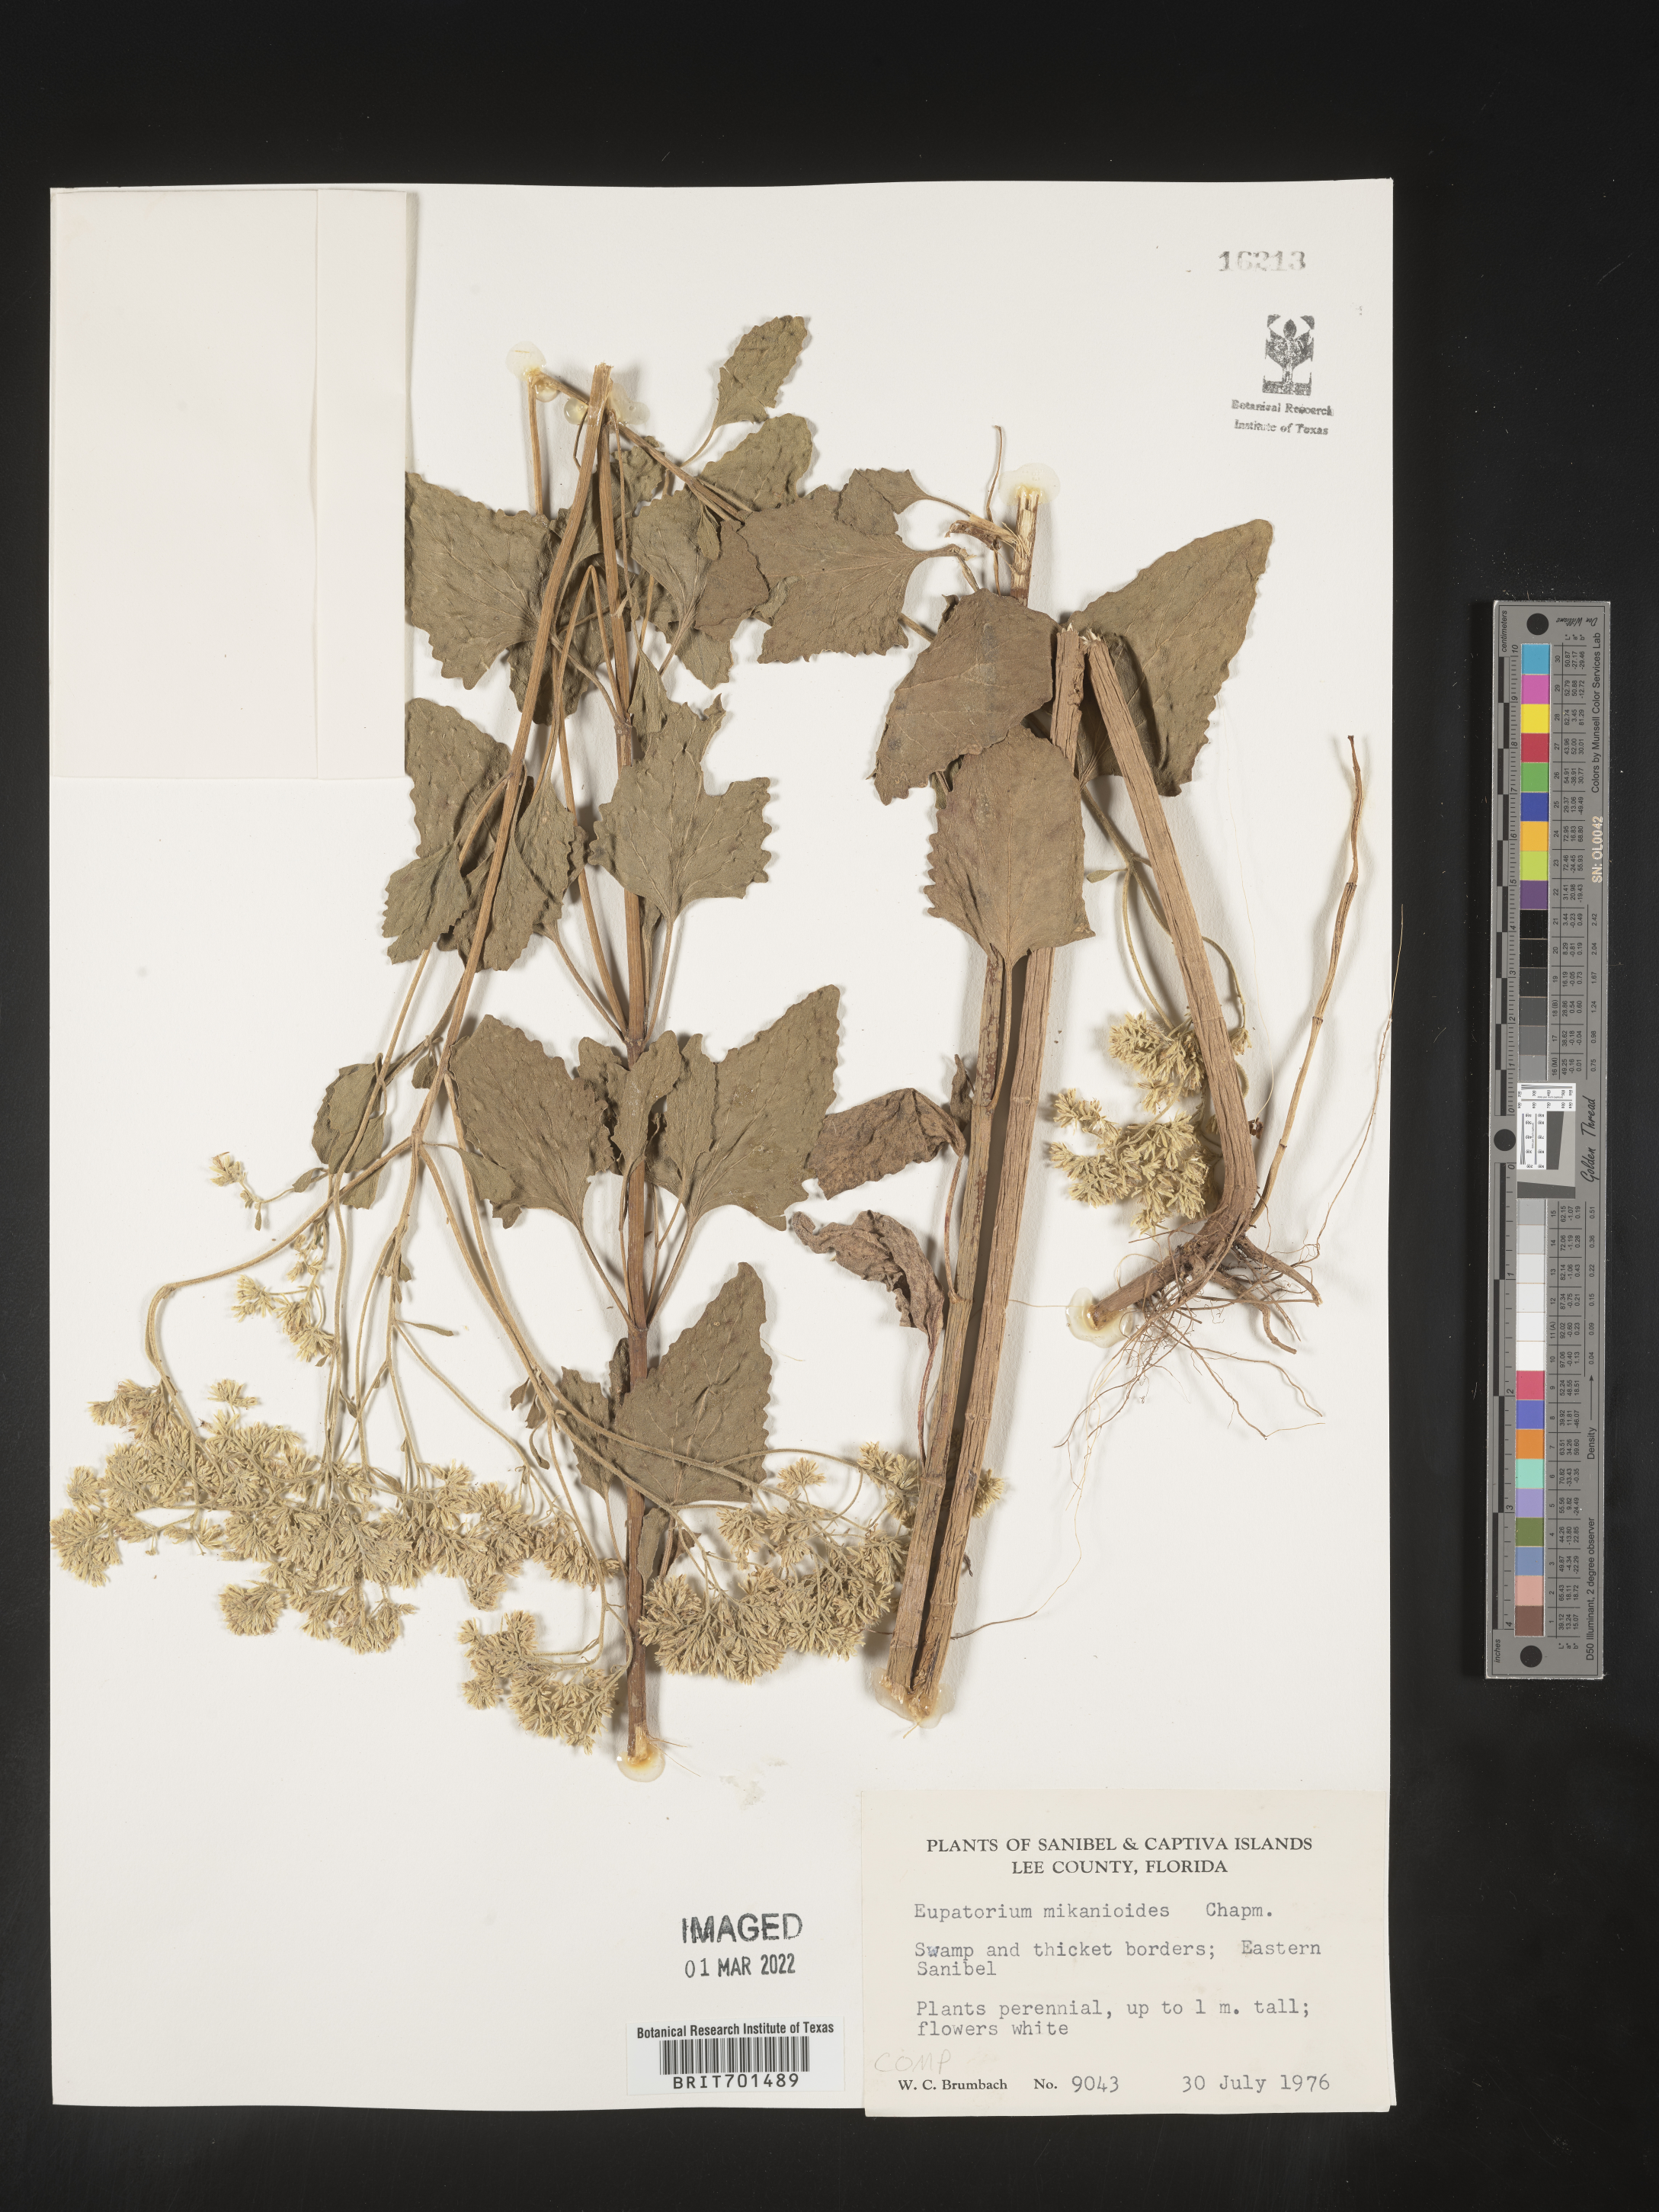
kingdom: Plantae
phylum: Tracheophyta
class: Magnoliopsida
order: Asterales
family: Asteraceae
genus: Eupatorium
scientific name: Eupatorium
